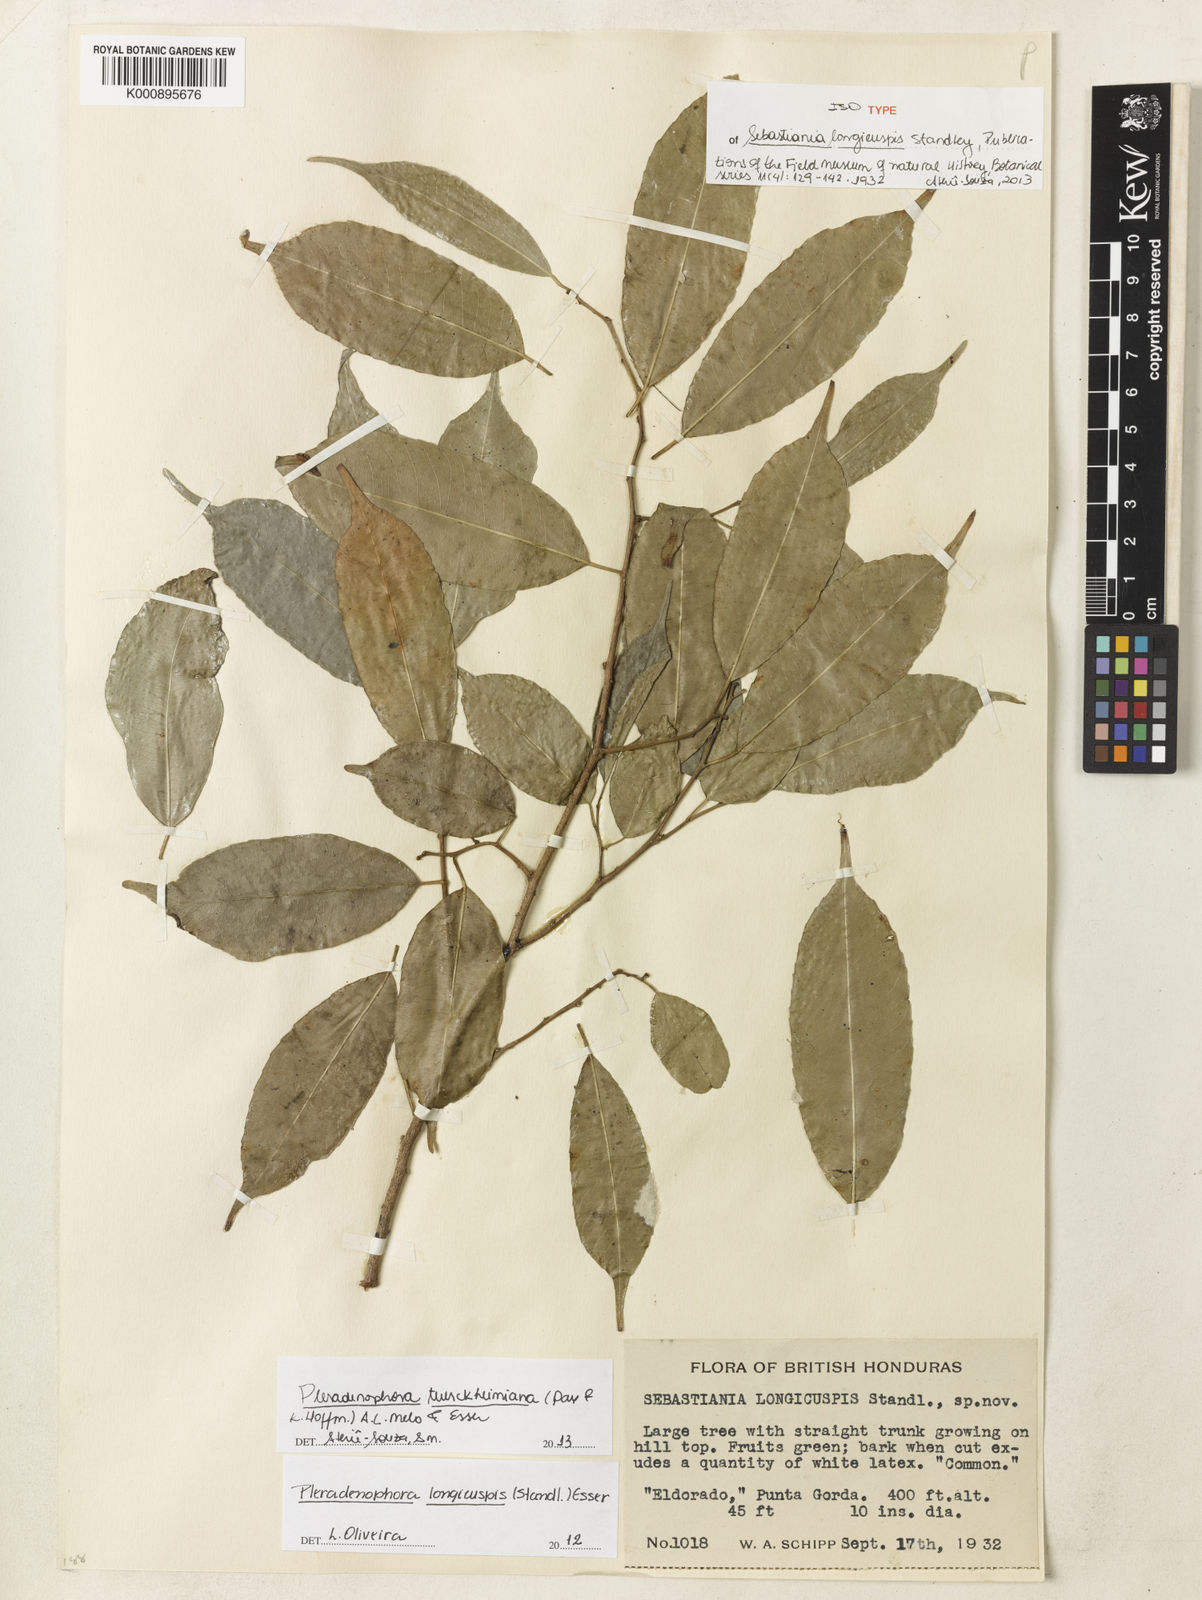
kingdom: Plantae
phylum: Tracheophyta
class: Magnoliopsida
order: Malpighiales
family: Euphorbiaceae
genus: Pleradenophora
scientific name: Pleradenophora tuerckheimiana
